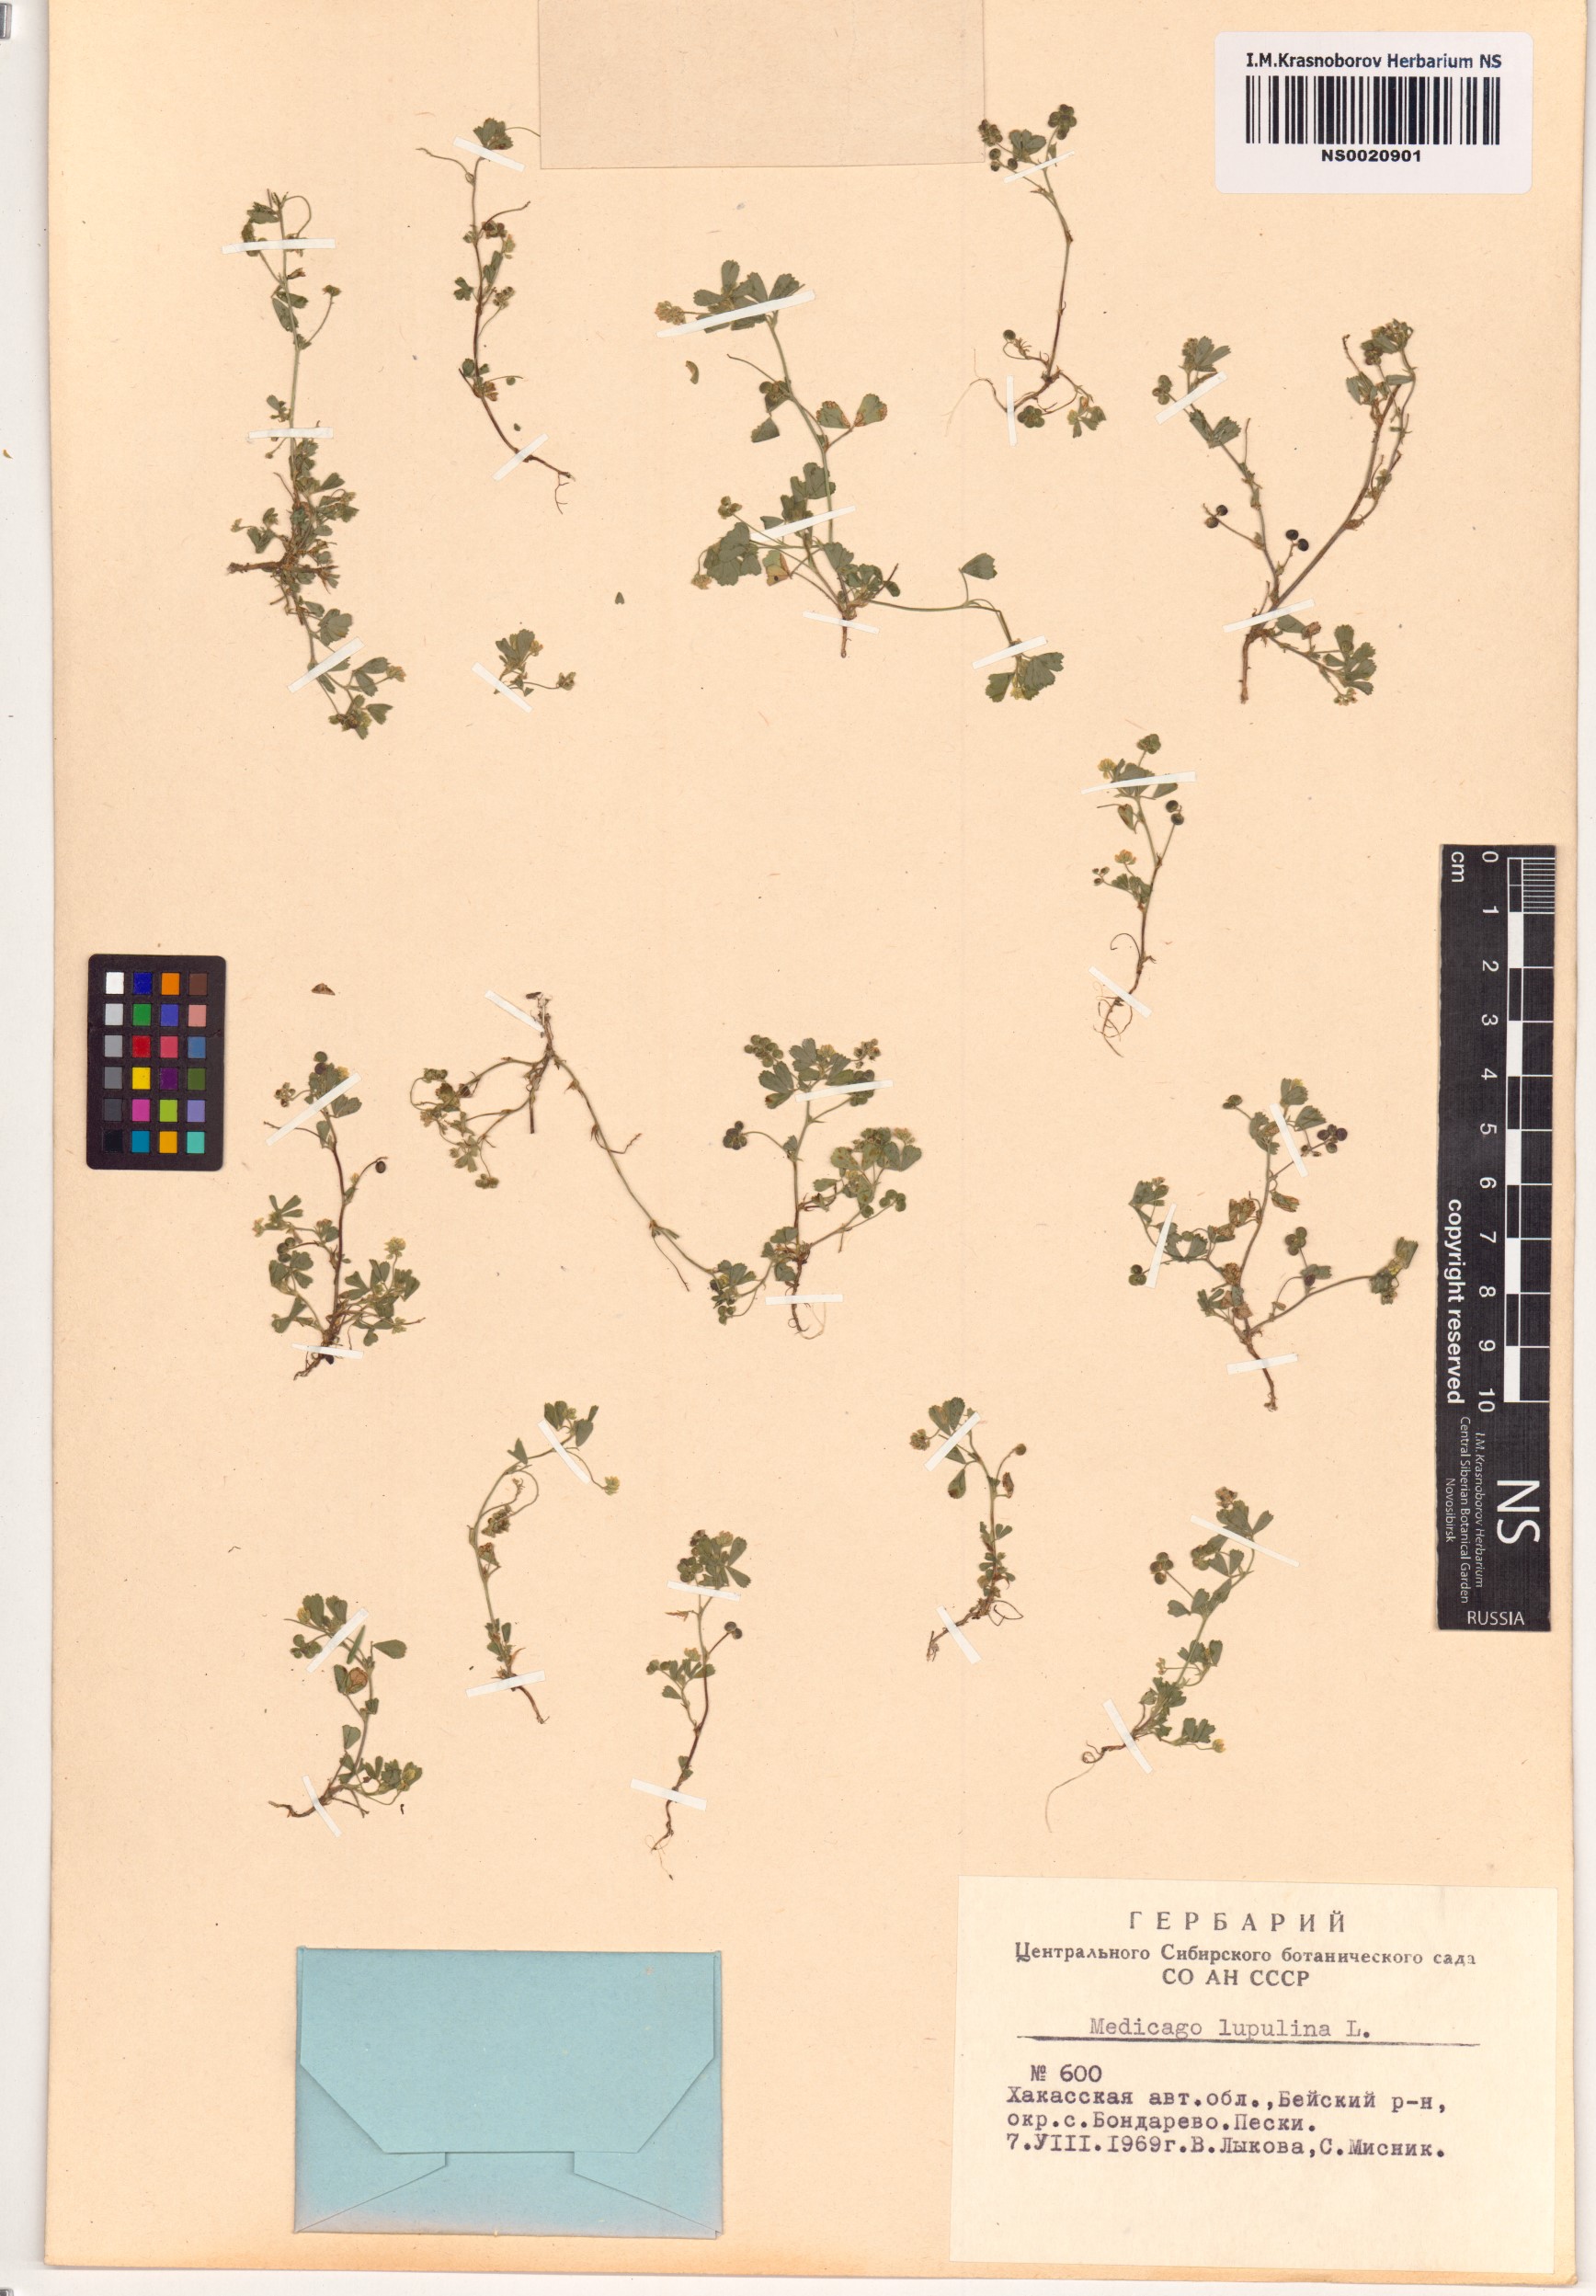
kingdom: Plantae
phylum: Tracheophyta
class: Magnoliopsida
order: Fabales
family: Fabaceae
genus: Medicago
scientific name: Medicago lupulina
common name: Black medick
